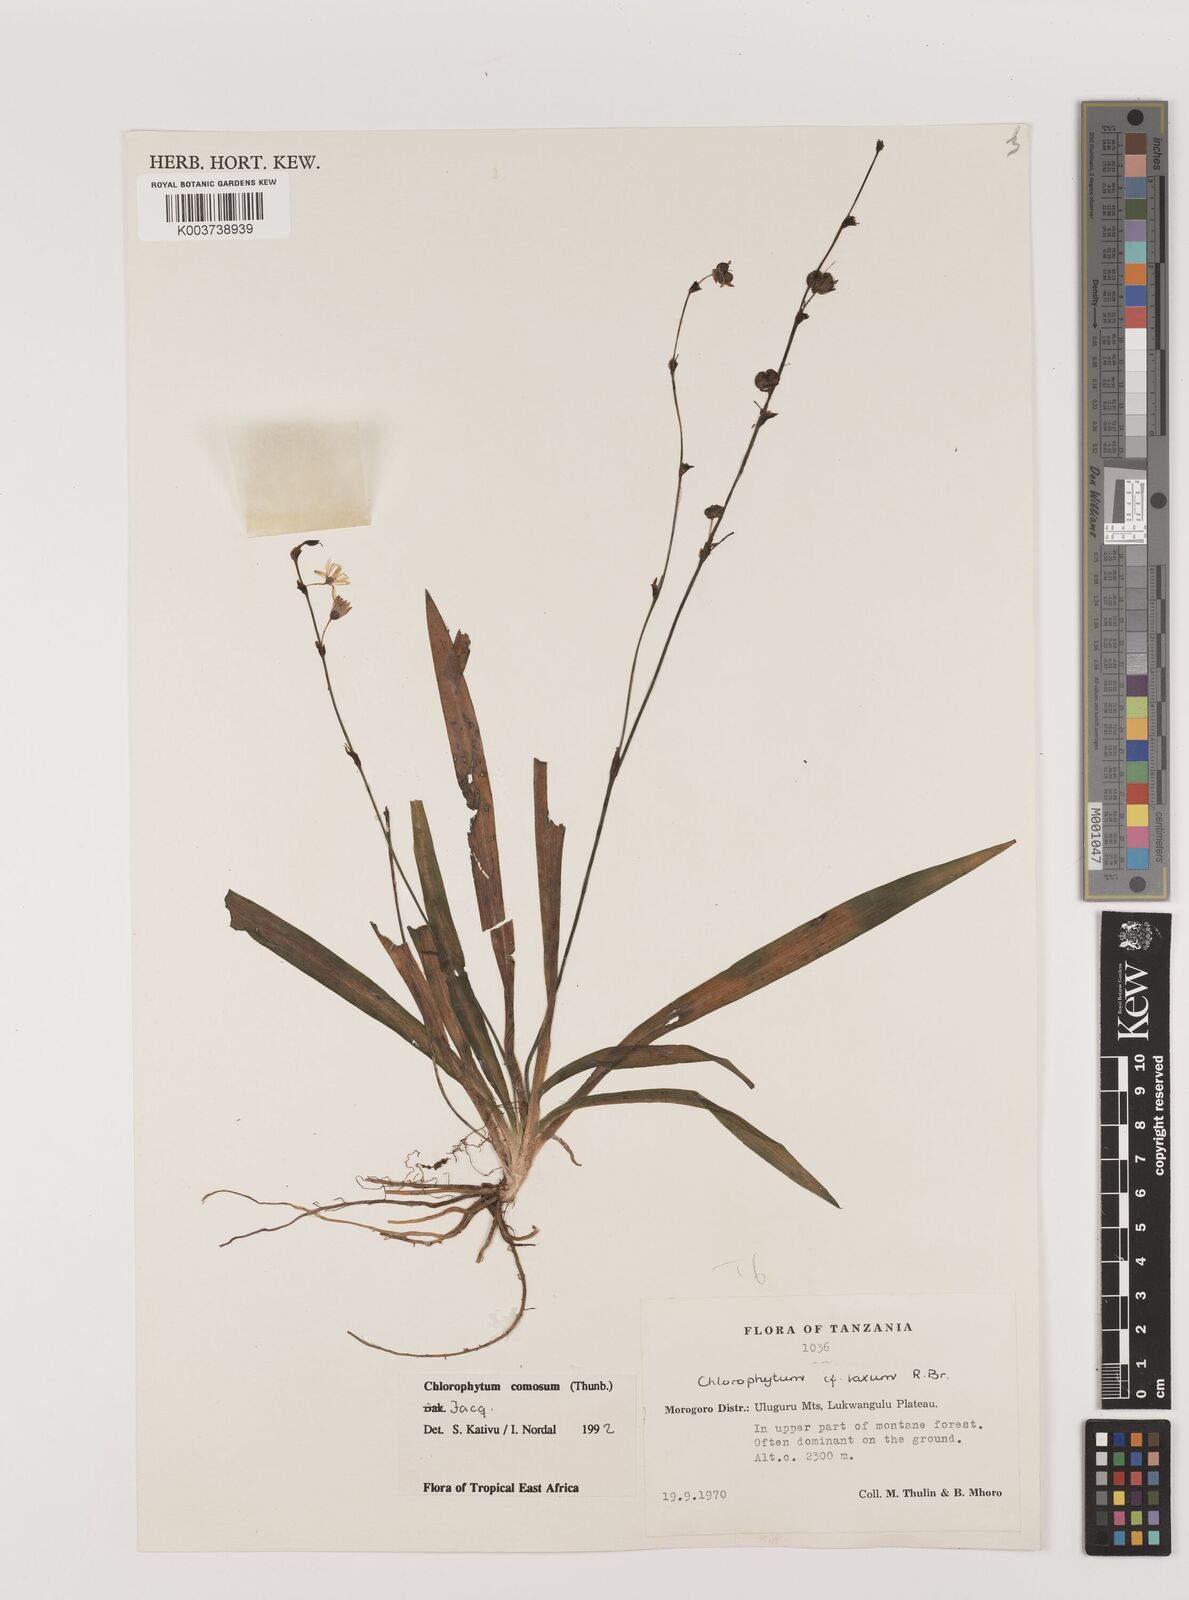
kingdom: Plantae
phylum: Tracheophyta
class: Liliopsida
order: Asparagales
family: Asparagaceae
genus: Chlorophytum
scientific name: Chlorophytum comosum
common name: Spider plant
